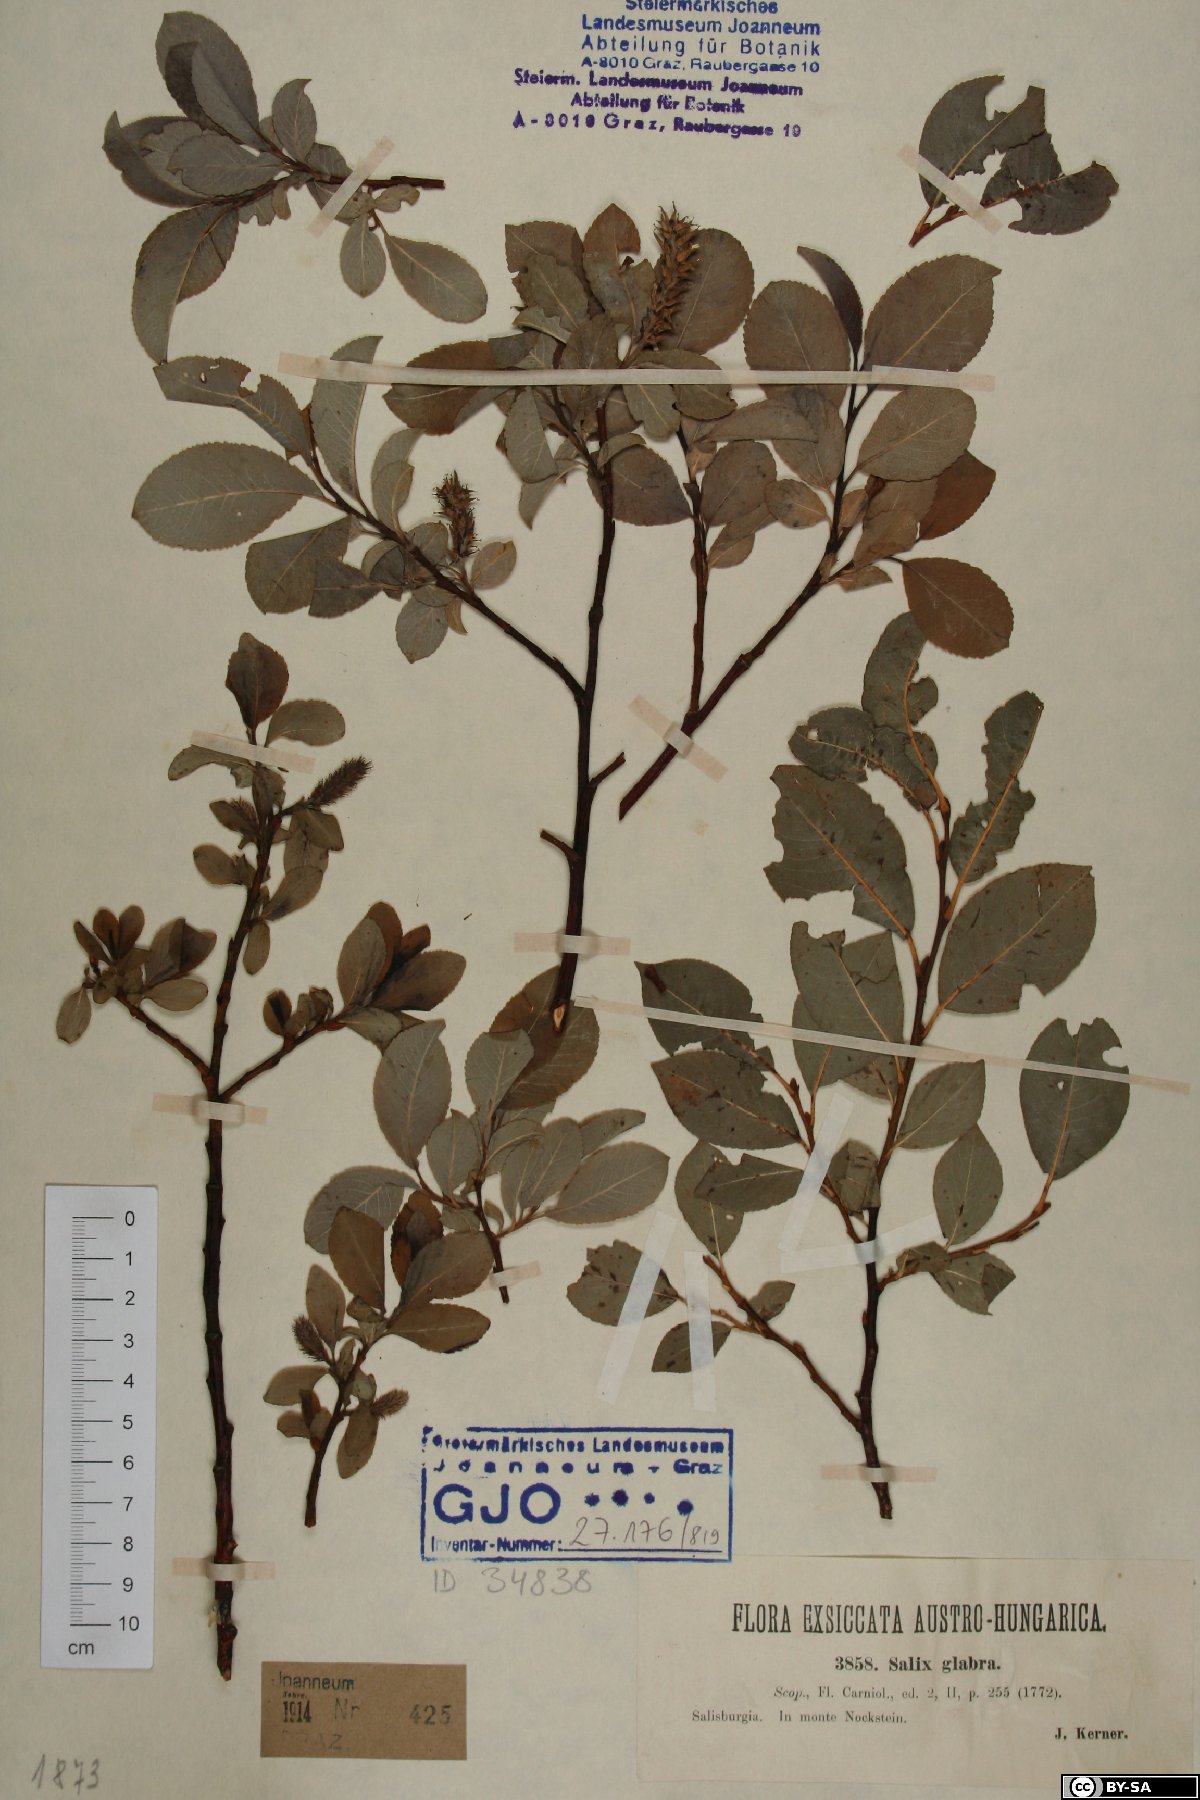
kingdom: Plantae
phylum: Tracheophyta
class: Magnoliopsida
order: Malpighiales
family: Salicaceae
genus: Salix
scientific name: Salix glabra
